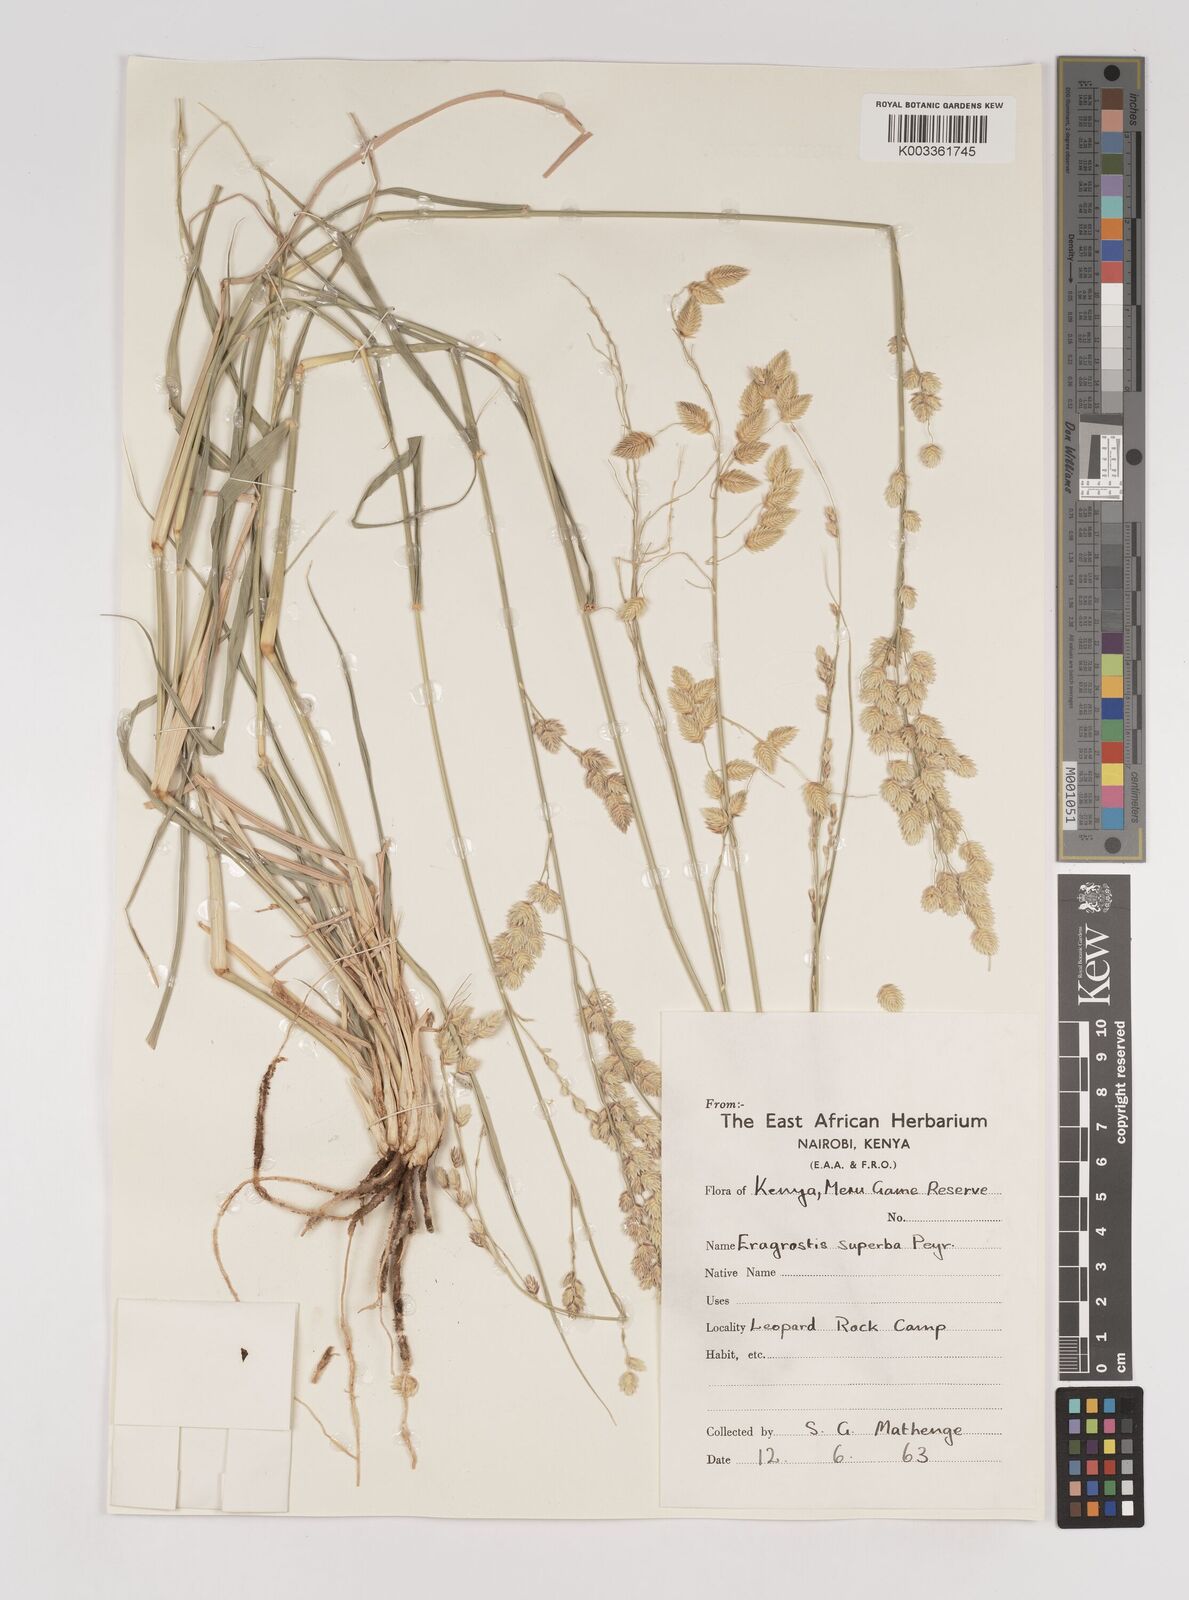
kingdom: Plantae
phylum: Tracheophyta
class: Liliopsida
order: Poales
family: Poaceae
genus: Eragrostis
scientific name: Eragrostis superba
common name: Wilman lovegrass
